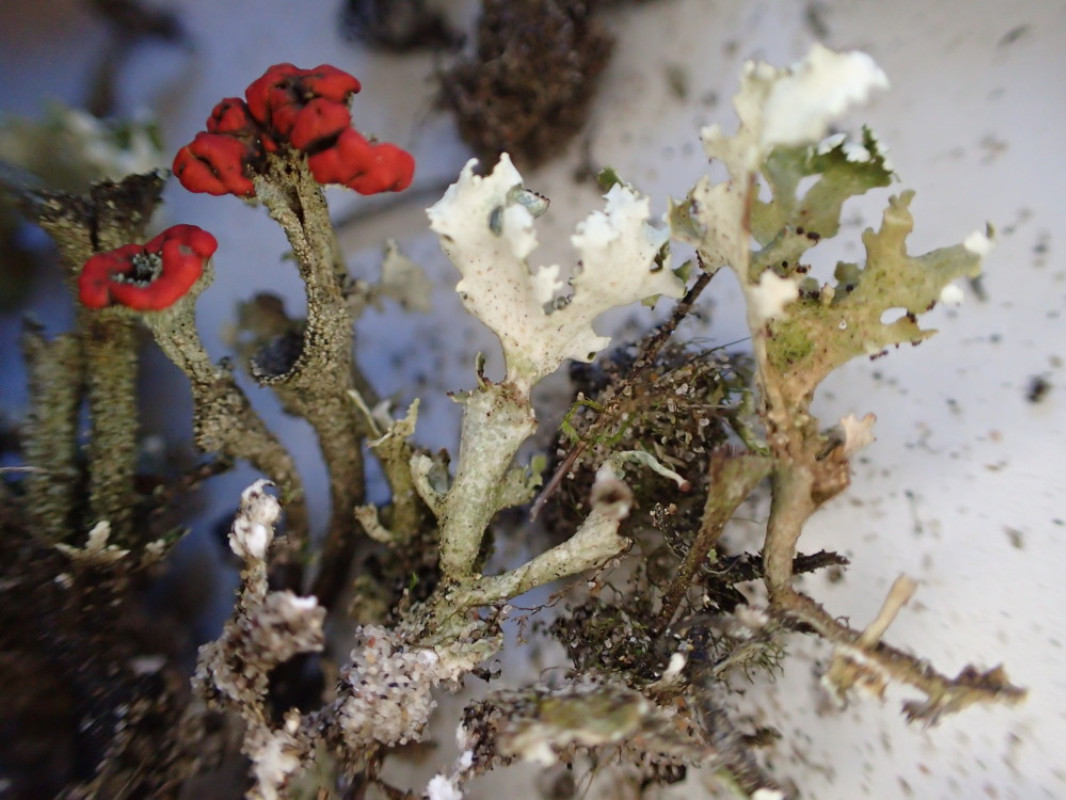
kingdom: Fungi
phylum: Ascomycota
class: Lecanoromycetes
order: Lecanorales
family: Cladoniaceae
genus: Cladonia
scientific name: Cladonia diversa
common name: rød bægerlav
